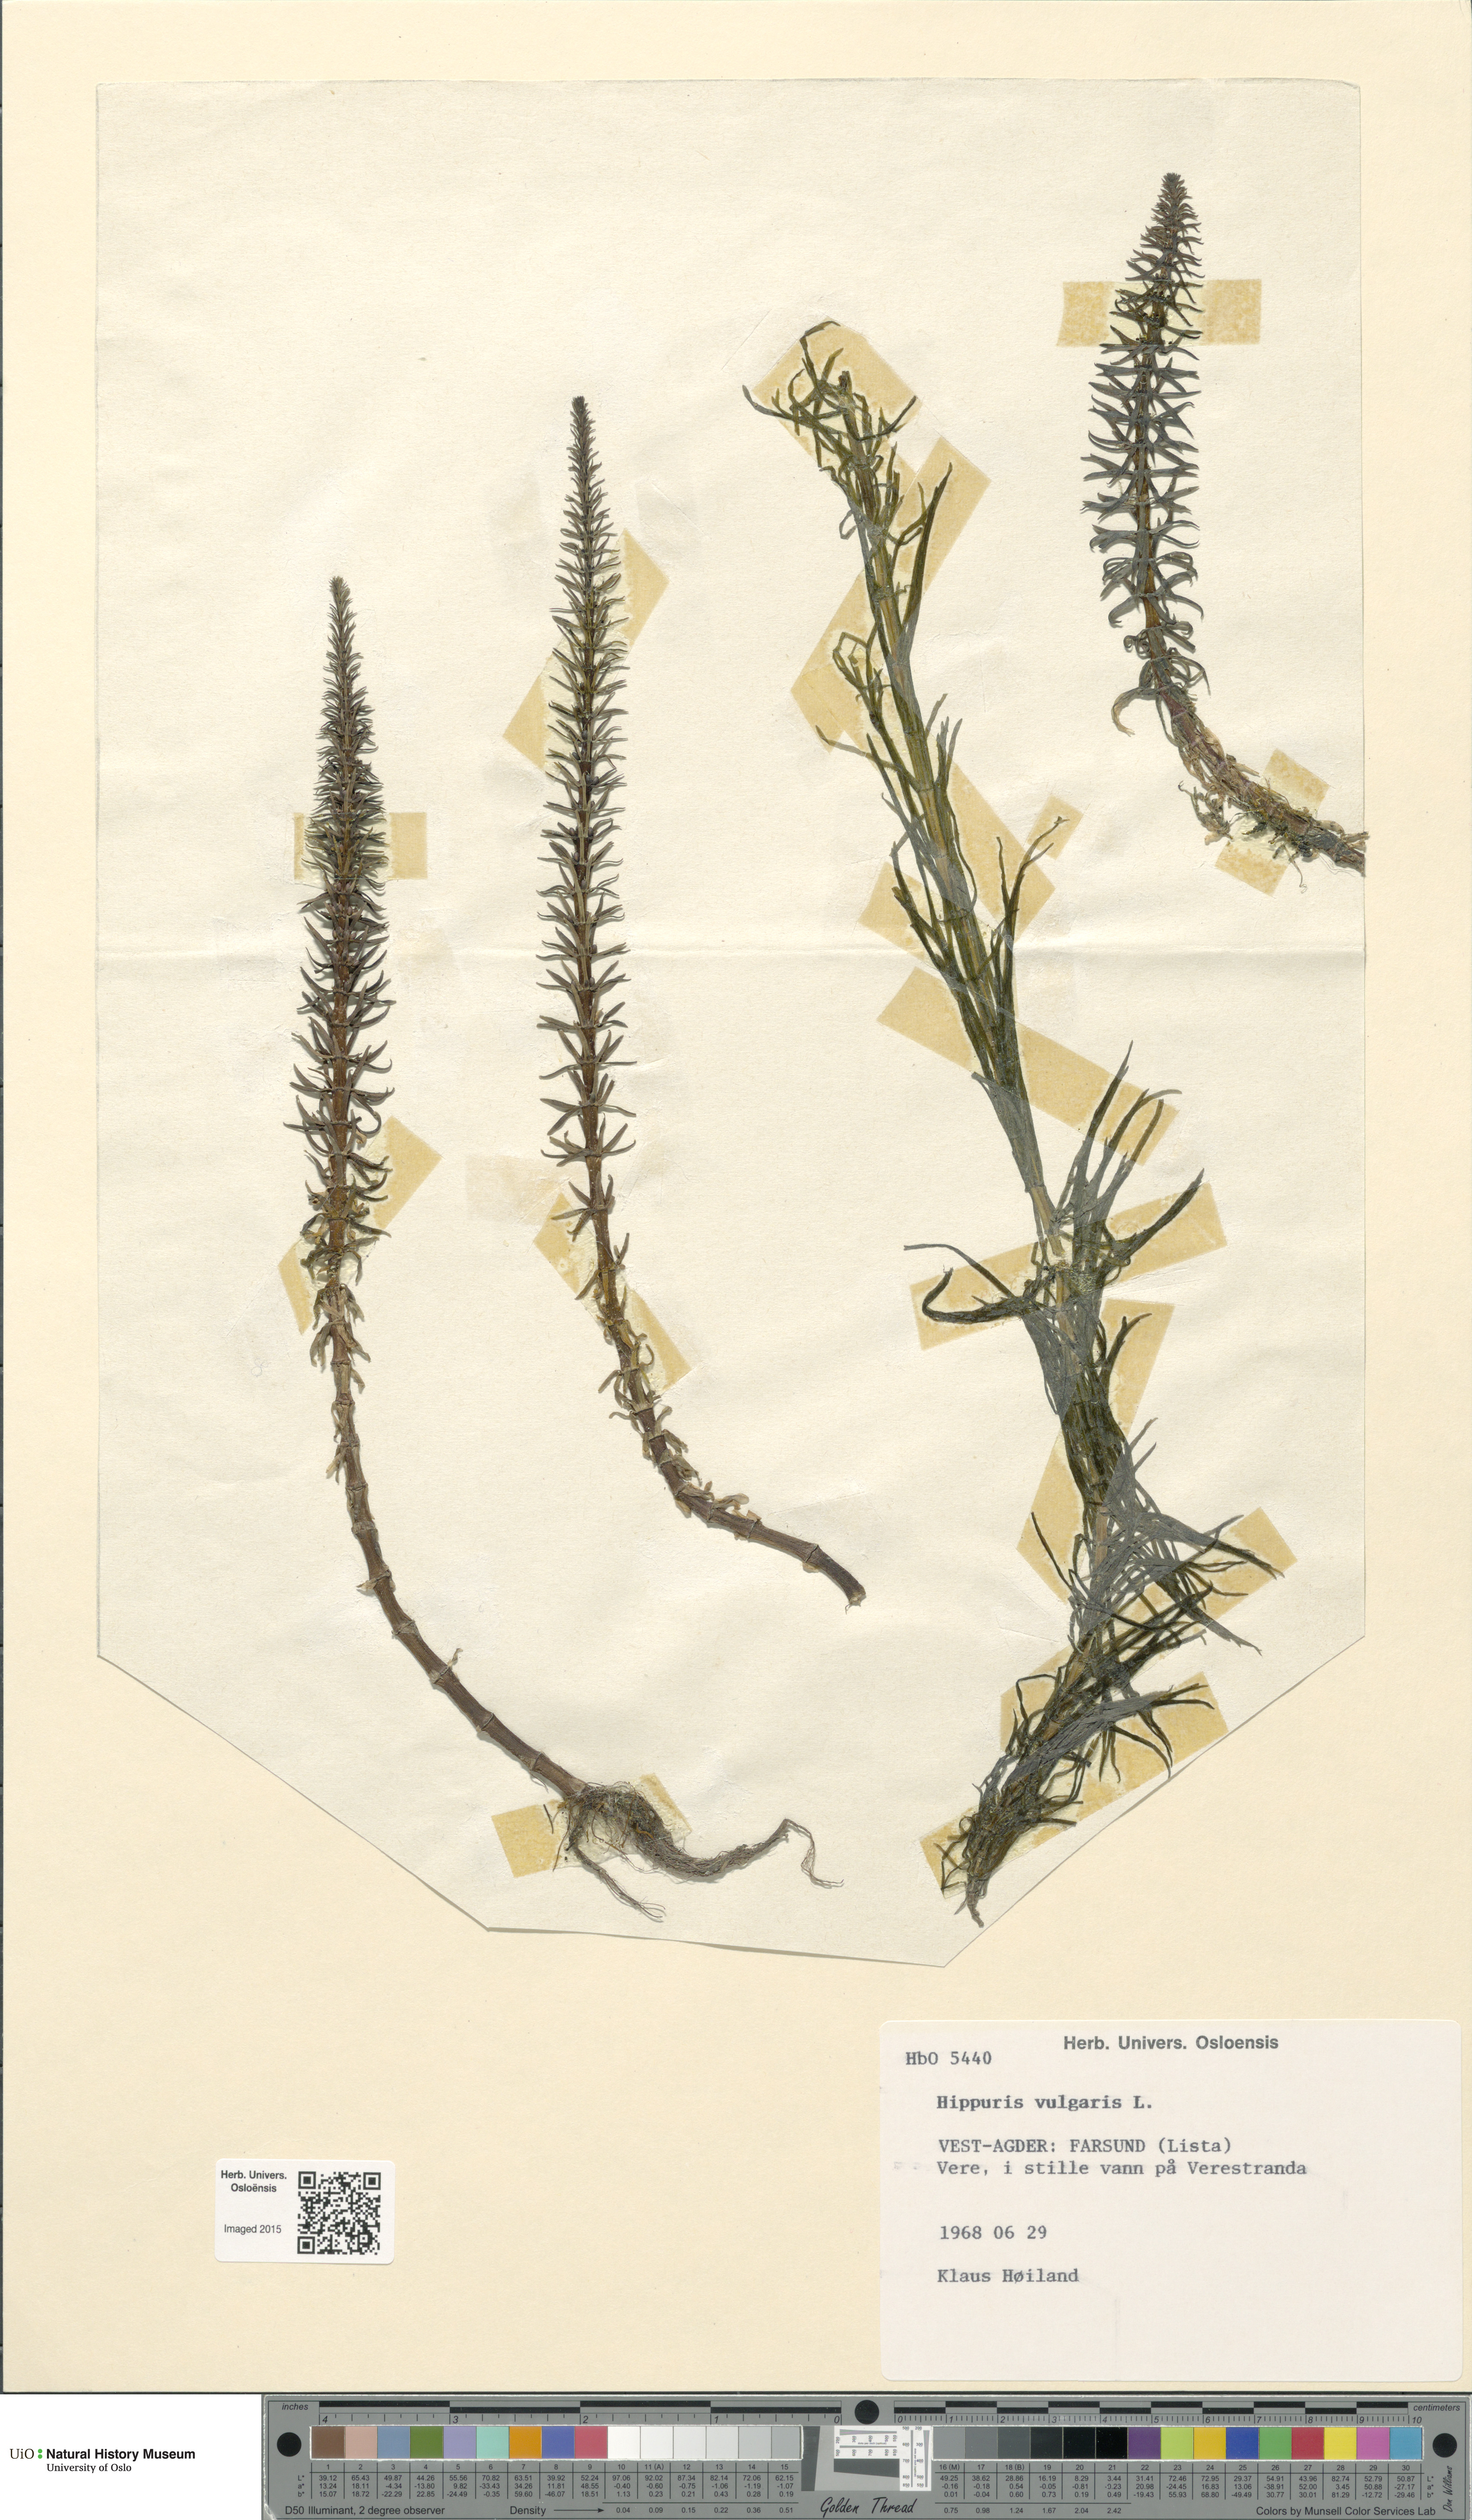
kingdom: Plantae
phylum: Tracheophyta
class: Magnoliopsida
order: Lamiales
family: Plantaginaceae
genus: Hippuris
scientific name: Hippuris vulgaris
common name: Mare's-tail
